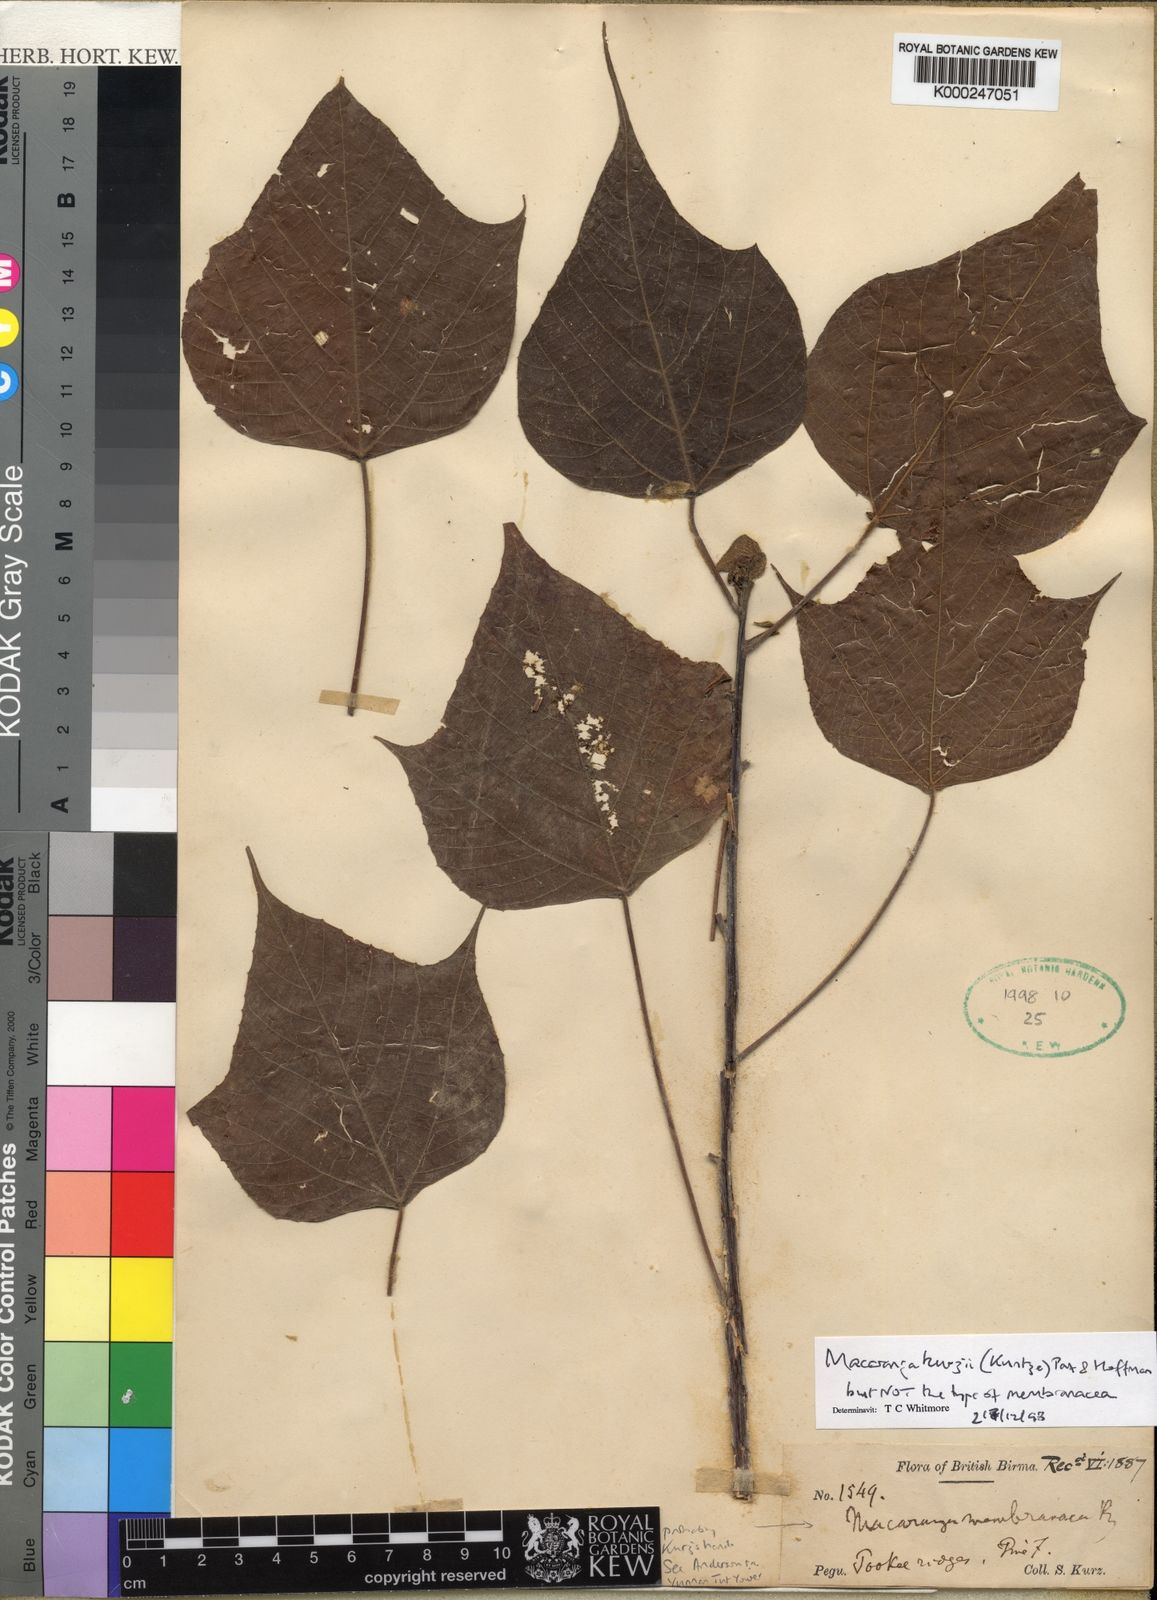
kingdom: Plantae
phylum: Tracheophyta
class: Magnoliopsida
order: Malpighiales
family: Euphorbiaceae
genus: Macaranga
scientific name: Macaranga kurzii
